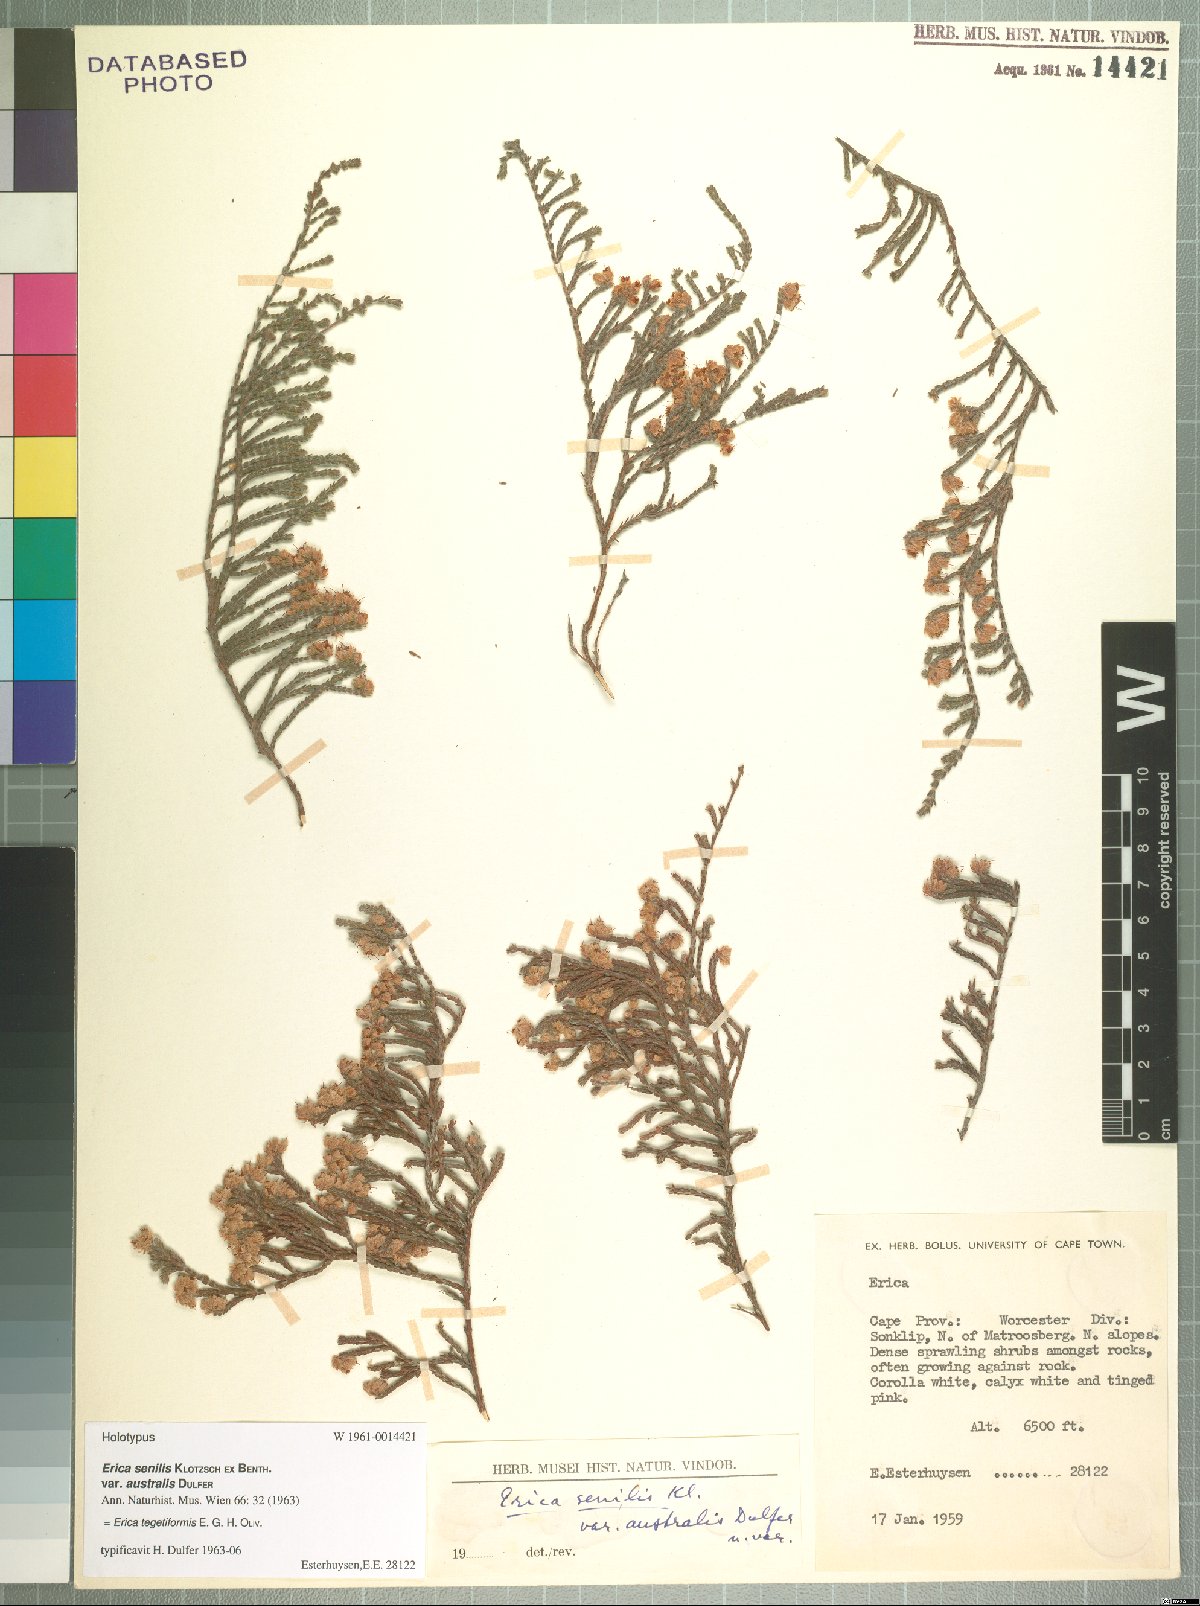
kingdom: Plantae
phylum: Tracheophyta
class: Magnoliopsida
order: Ericales
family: Ericaceae
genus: Erica
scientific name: Erica senilis
